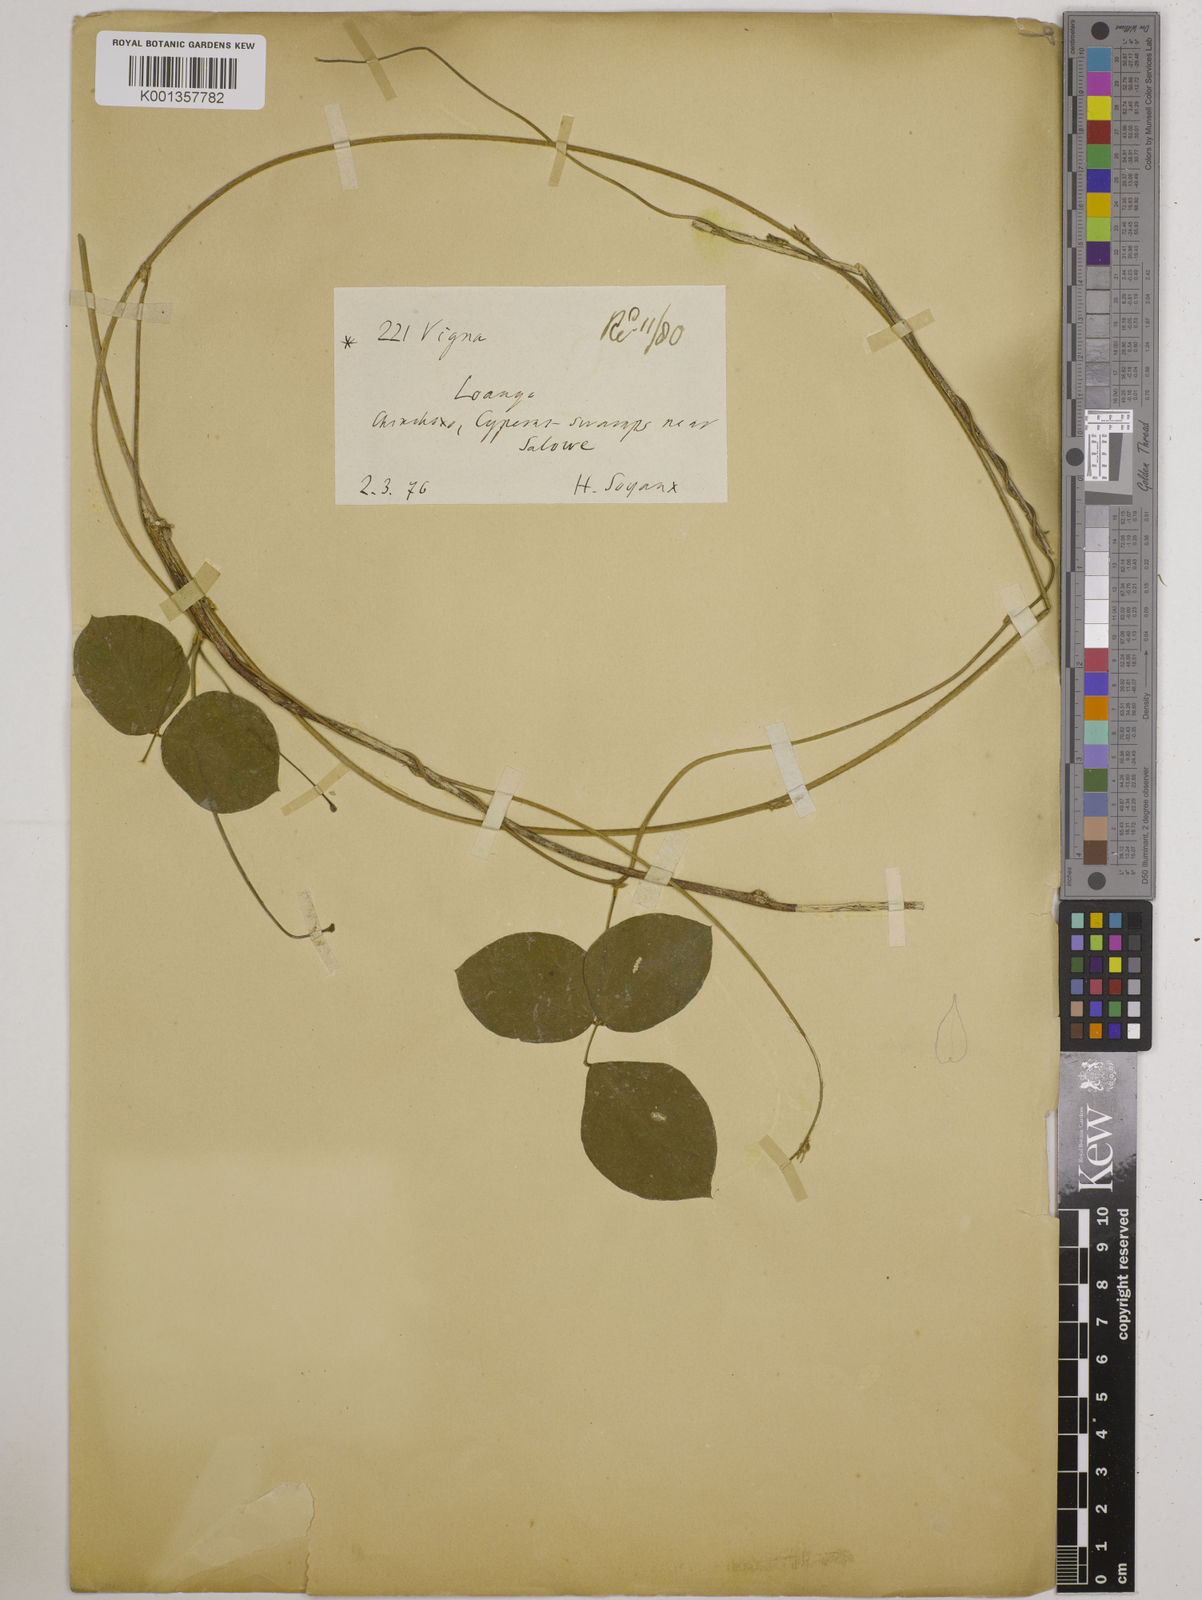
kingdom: Plantae
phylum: Tracheophyta
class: Magnoliopsida
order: Fabales
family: Fabaceae
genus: Vigna
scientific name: Vigna
